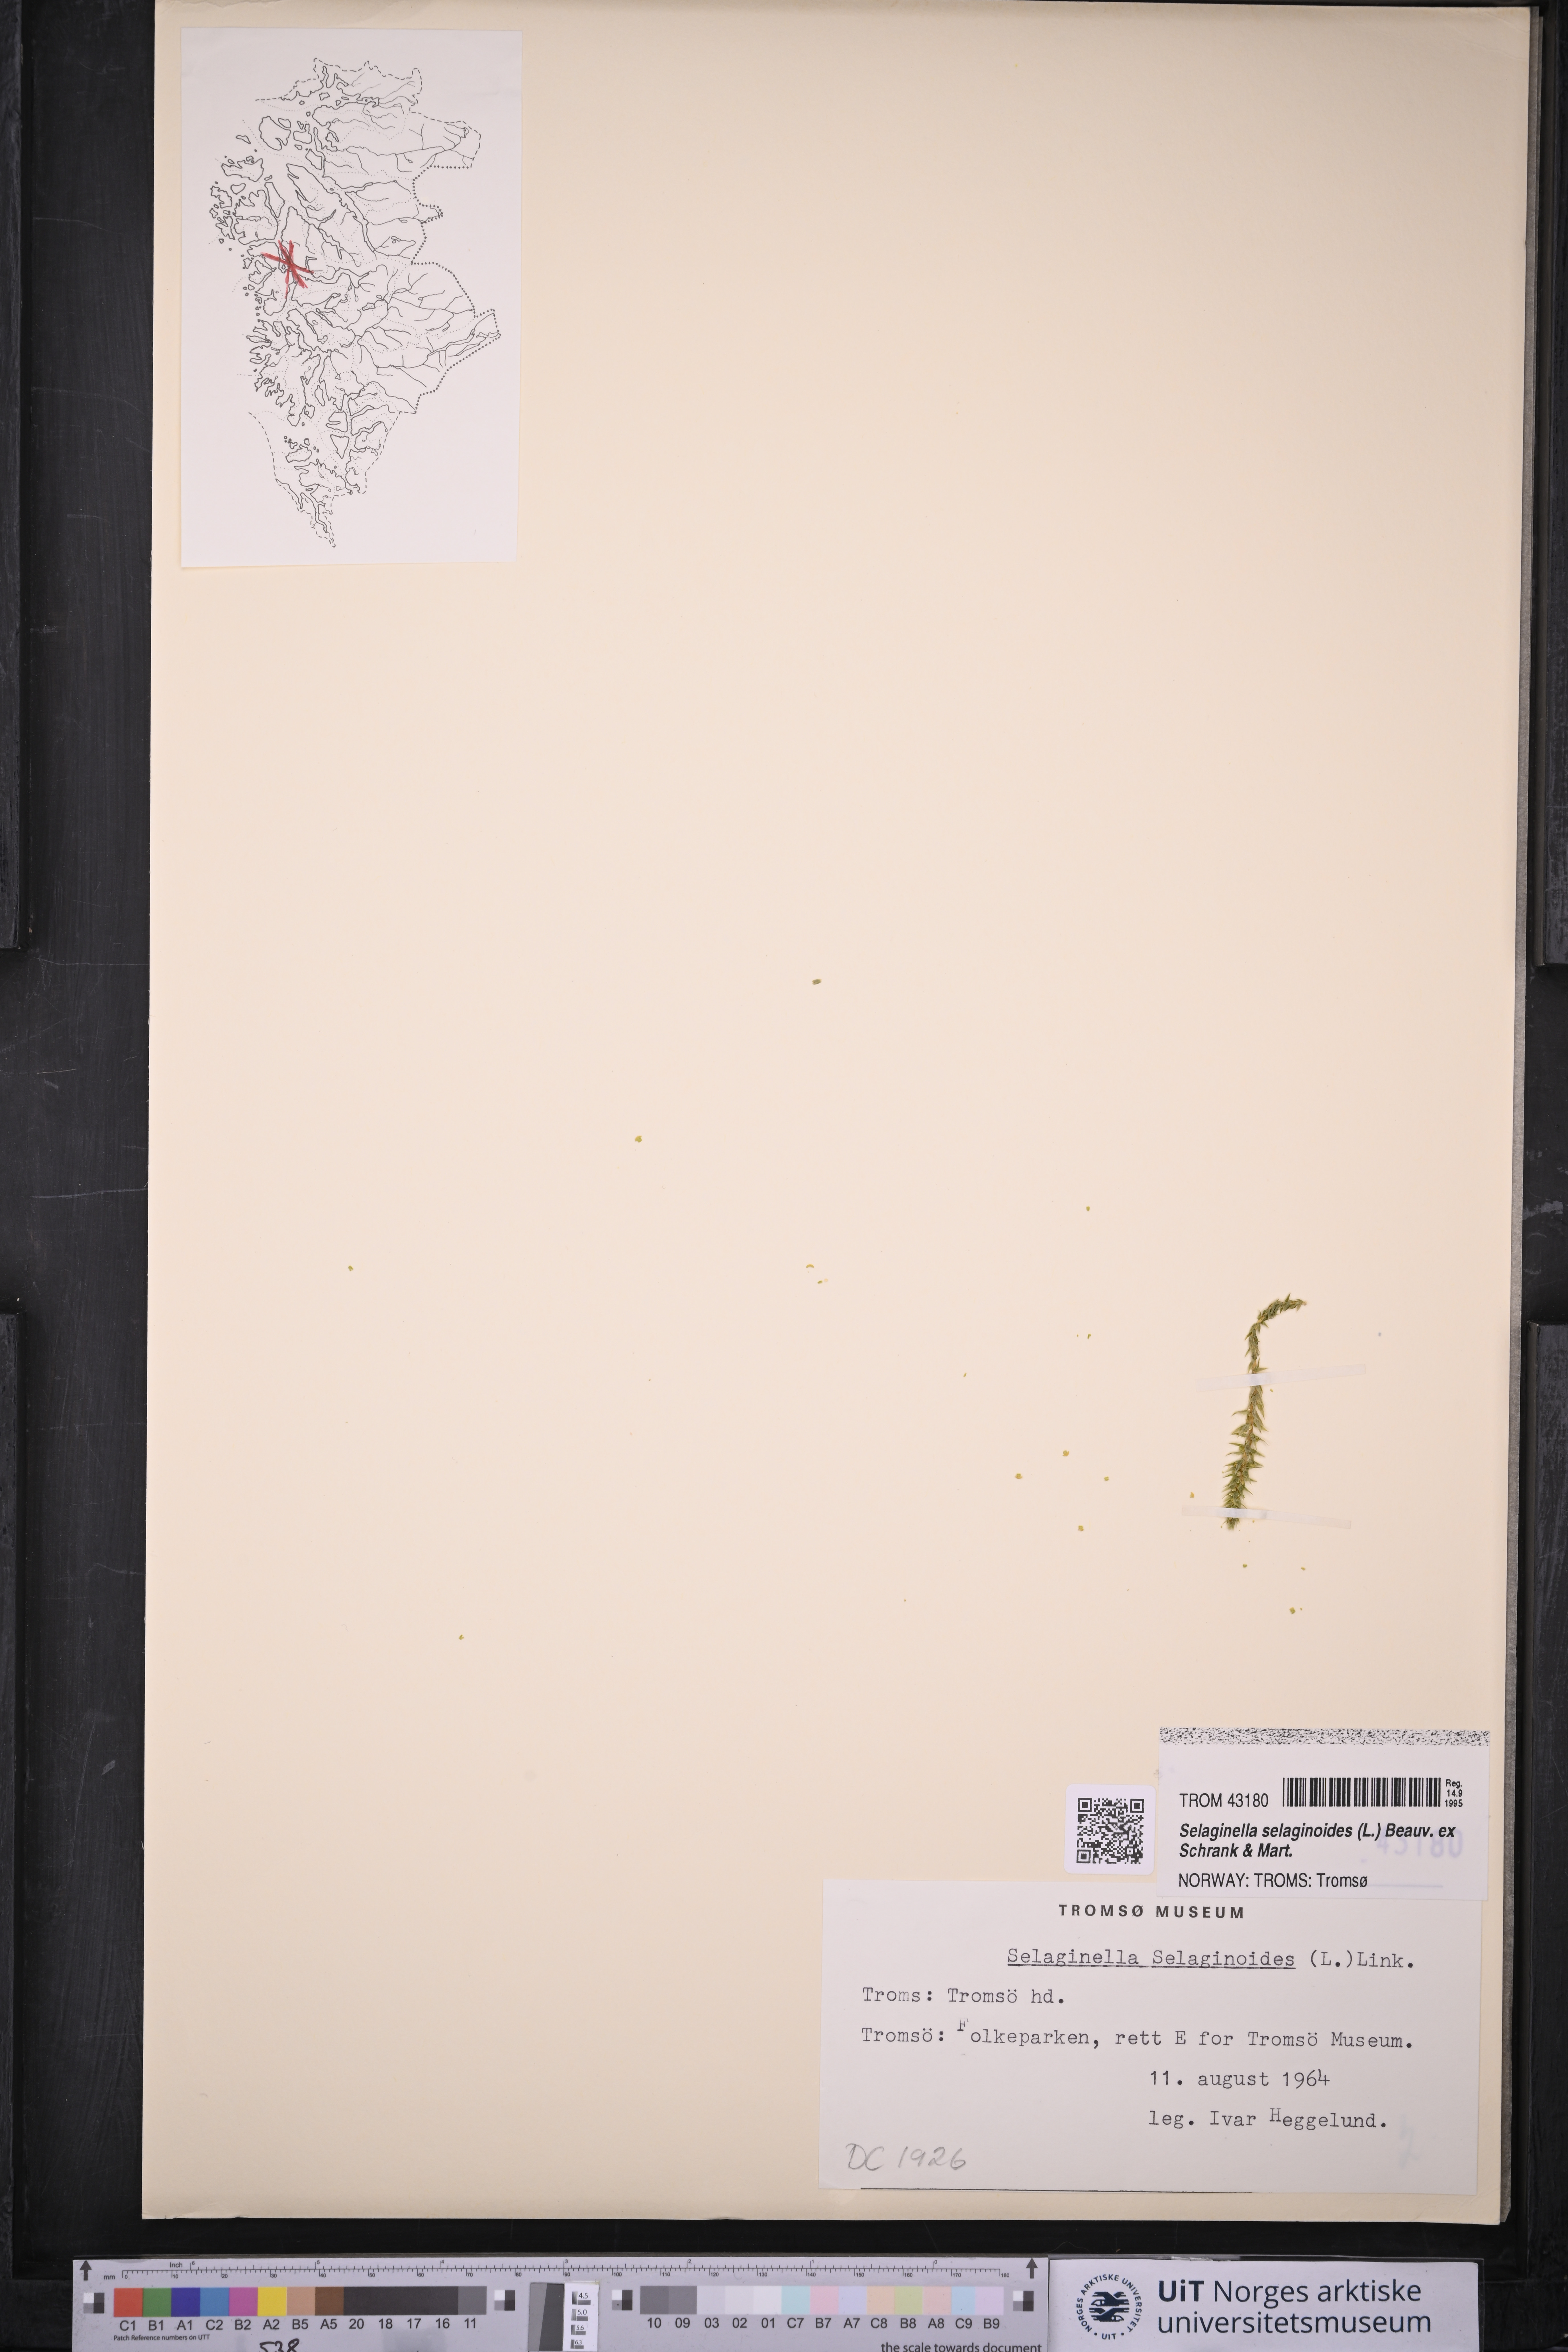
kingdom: Plantae
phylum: Tracheophyta
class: Lycopodiopsida
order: Selaginellales
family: Selaginellaceae
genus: Selaginella
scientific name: Selaginella selaginoides
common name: Prickly mountain-moss
